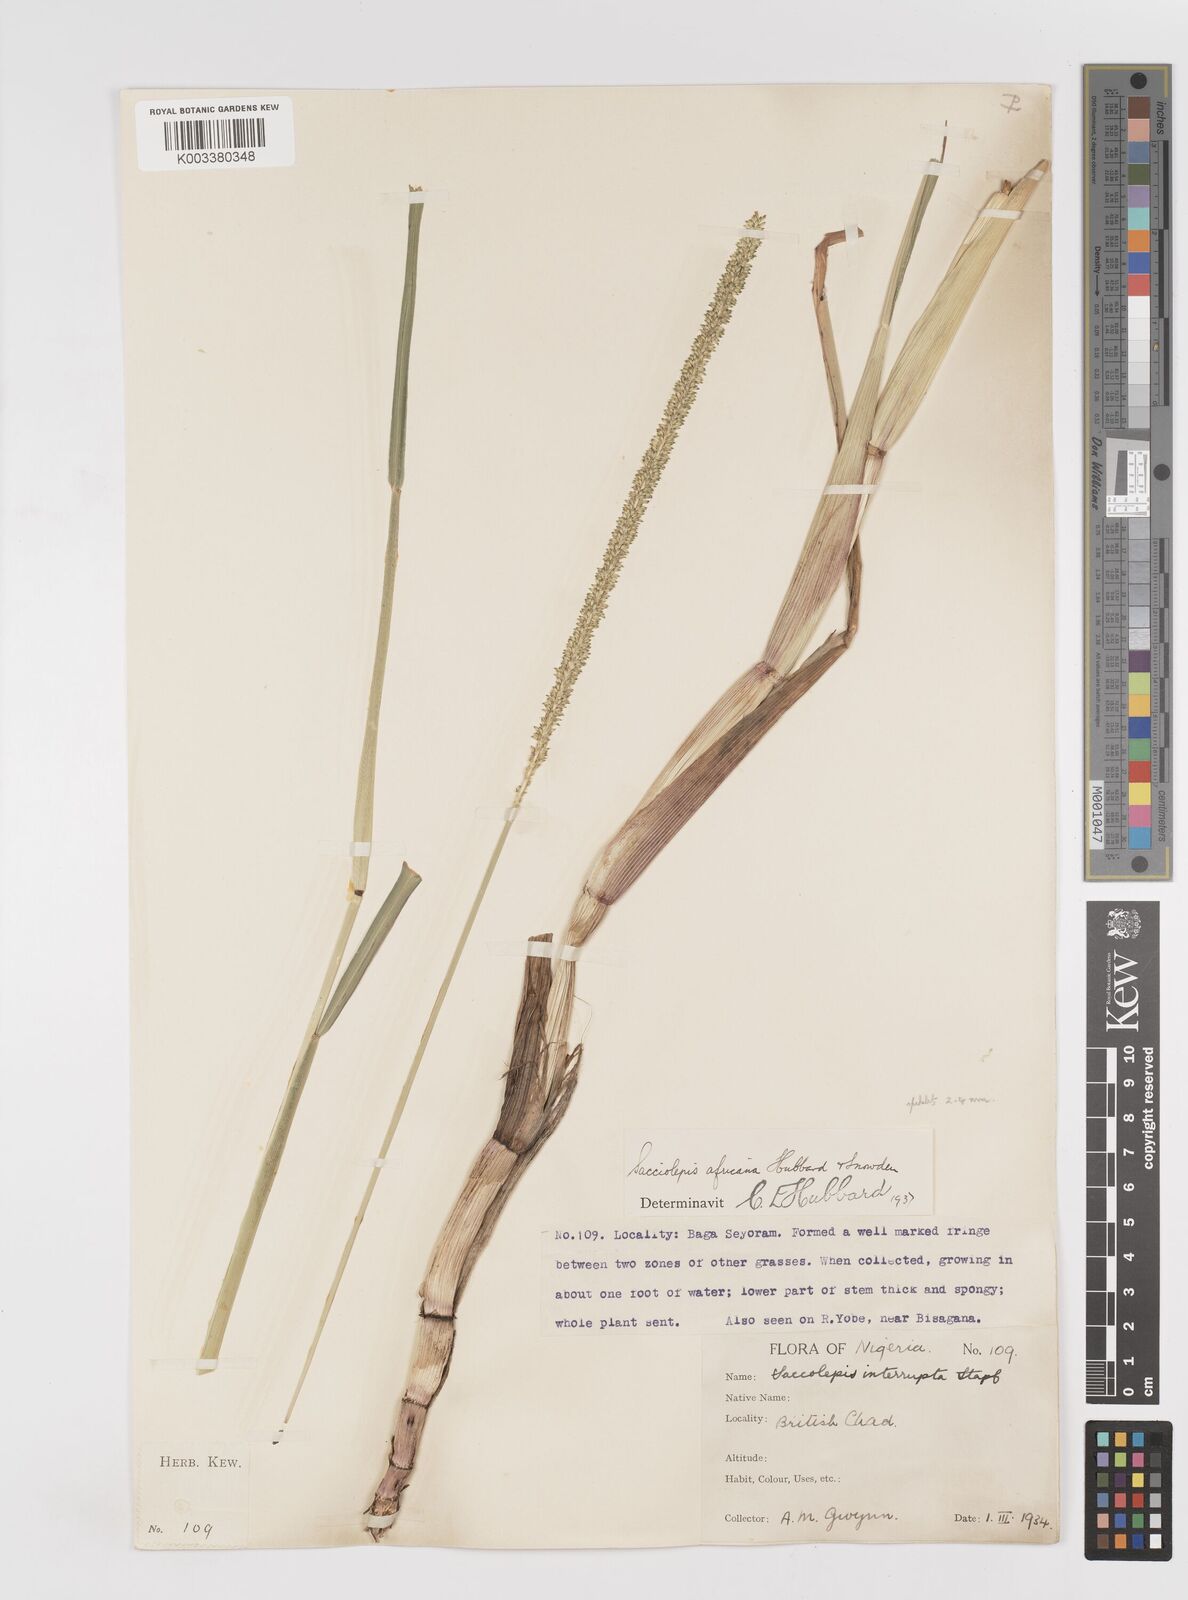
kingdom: Plantae
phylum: Tracheophyta
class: Liliopsida
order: Poales
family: Poaceae
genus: Sacciolepis
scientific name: Sacciolepis africana
